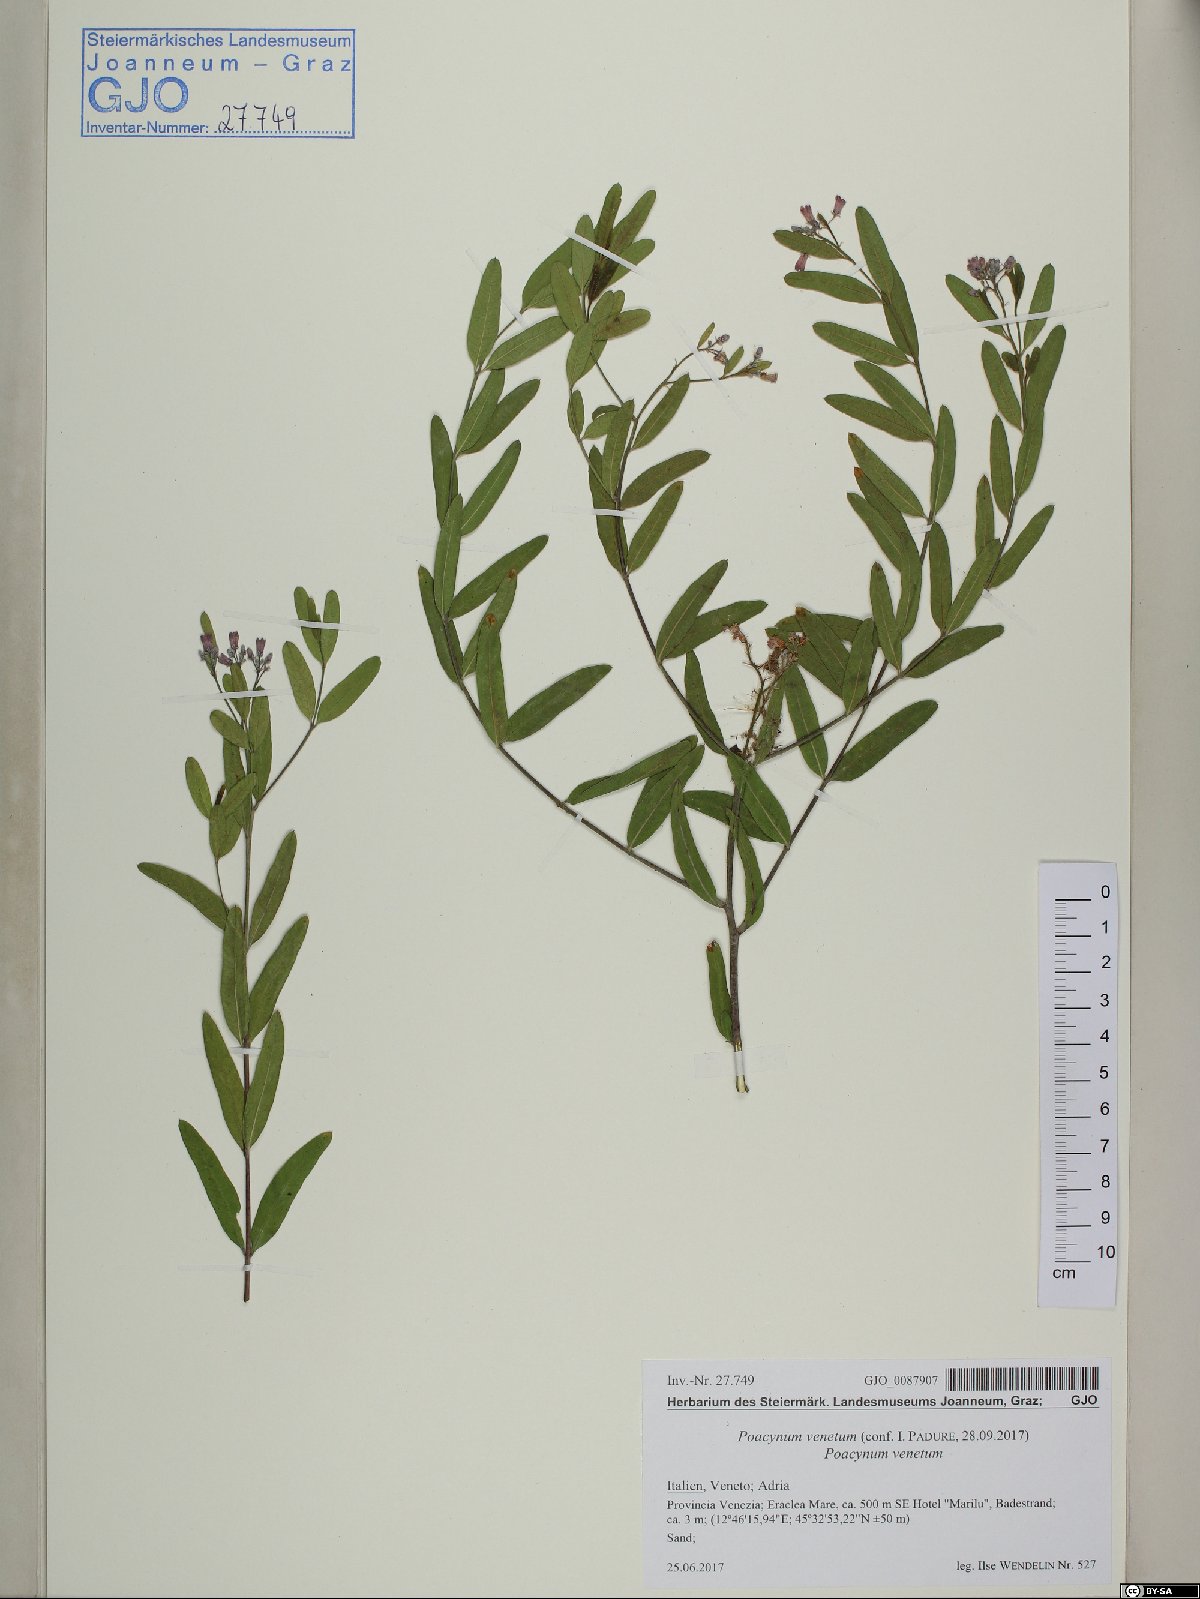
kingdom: Plantae
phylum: Tracheophyta
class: Magnoliopsida
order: Gentianales
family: Apocynaceae
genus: Poacynum
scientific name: Poacynum venetum
